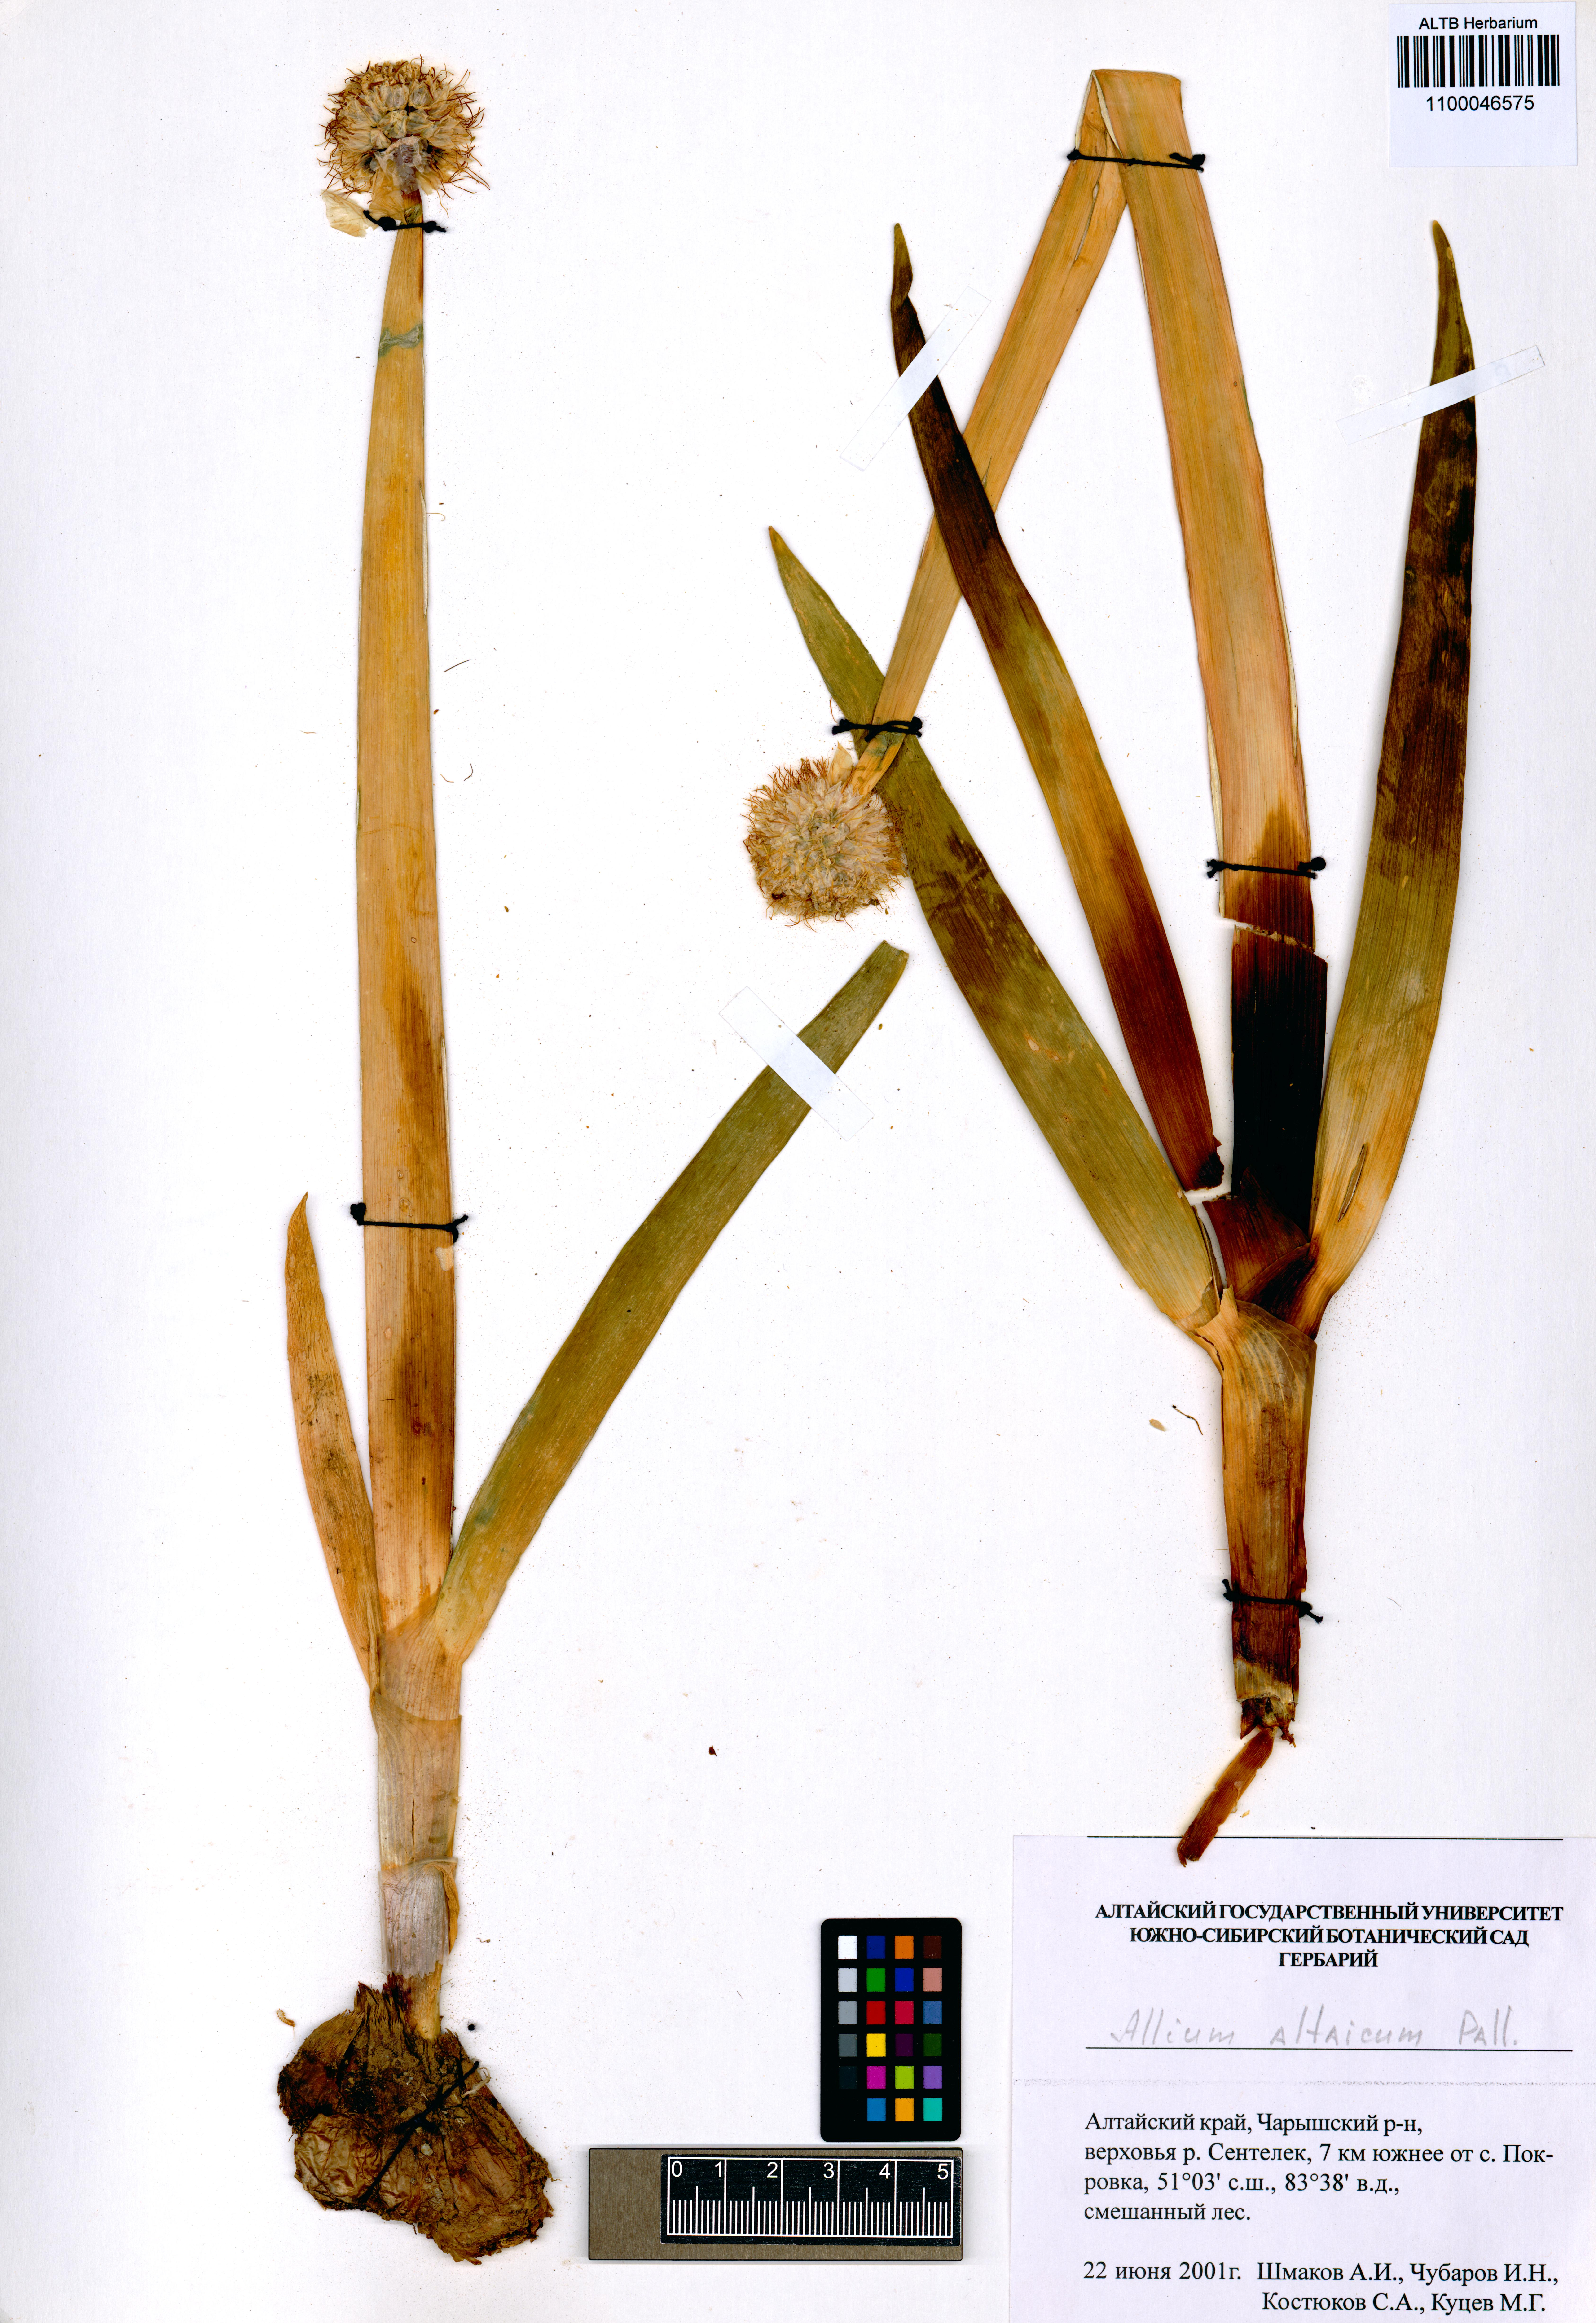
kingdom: Plantae
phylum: Tracheophyta
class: Liliopsida
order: Asparagales
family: Amaryllidaceae
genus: Allium
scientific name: Allium altaicum
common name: Altai onion
